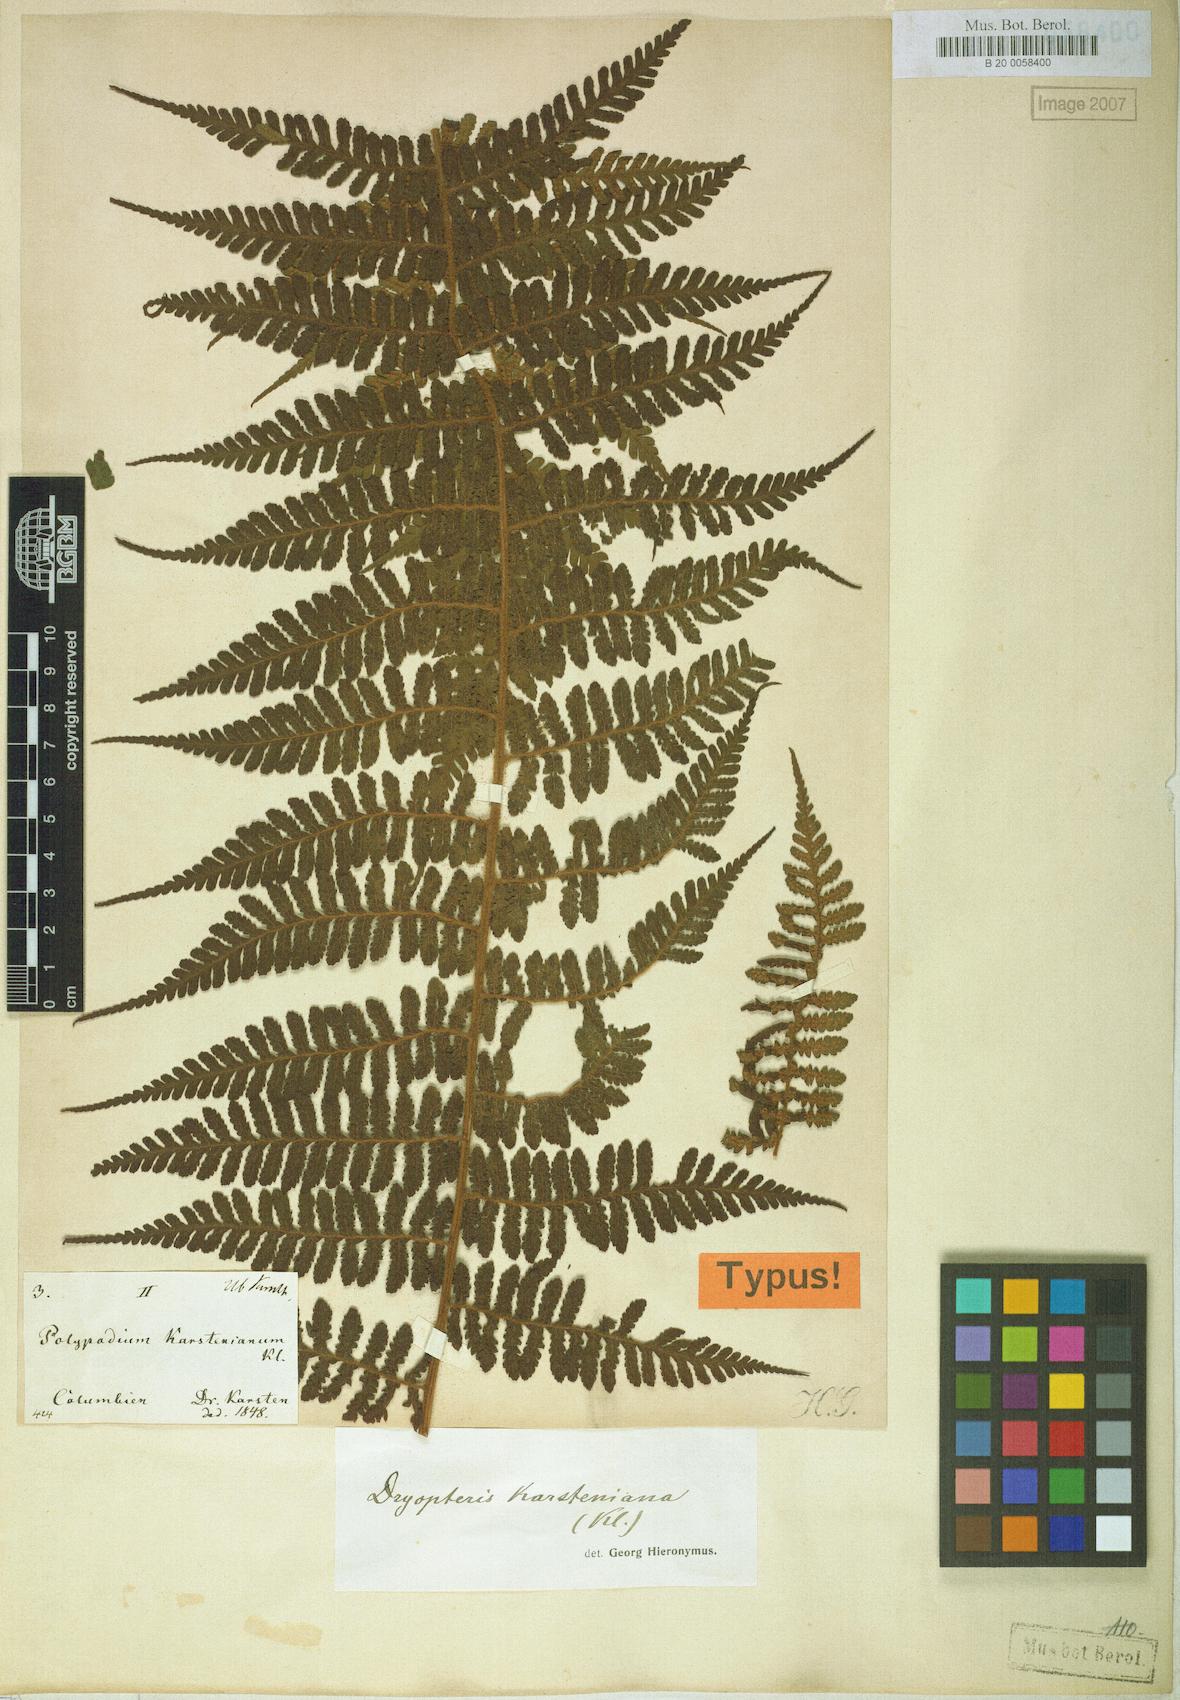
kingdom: Plantae
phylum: Tracheophyta
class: Polypodiopsida
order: Polypodiales
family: Dryopteridaceae
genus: Megalastrum
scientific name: Megalastrum pulverulentum
